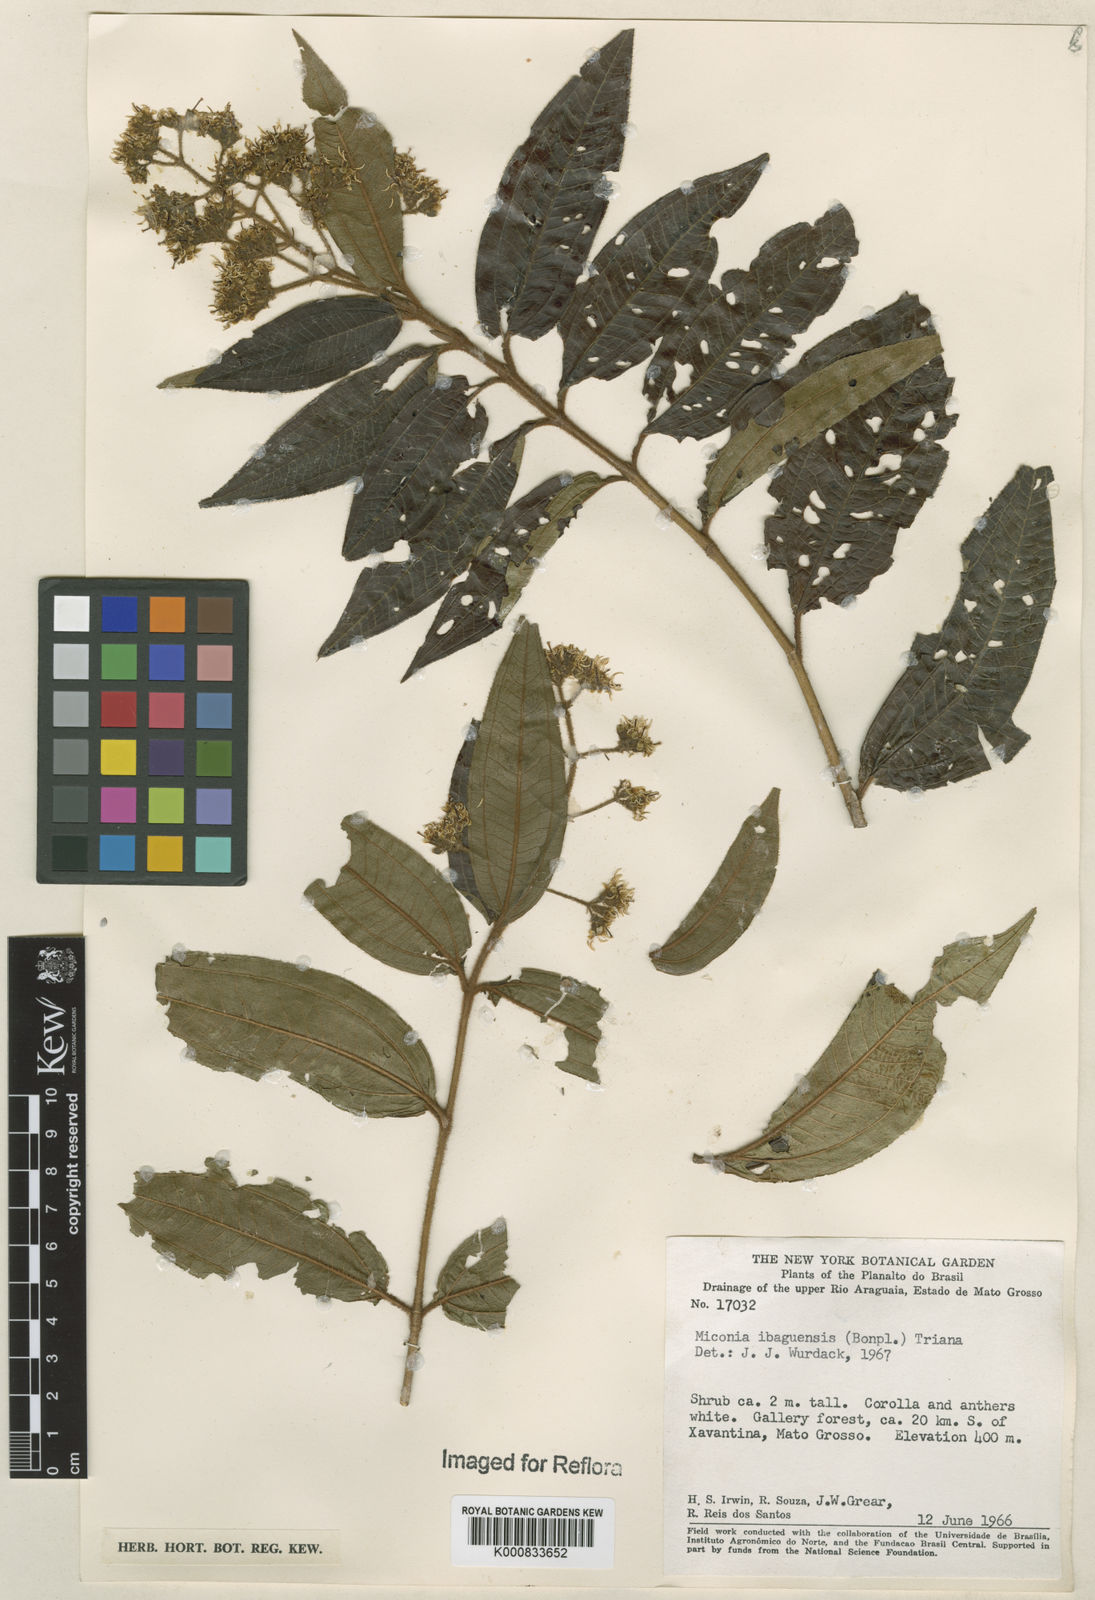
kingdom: Plantae
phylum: Tracheophyta
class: Magnoliopsida
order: Myrtales
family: Melastomataceae
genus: Miconia
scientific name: Miconia ibaguensis
